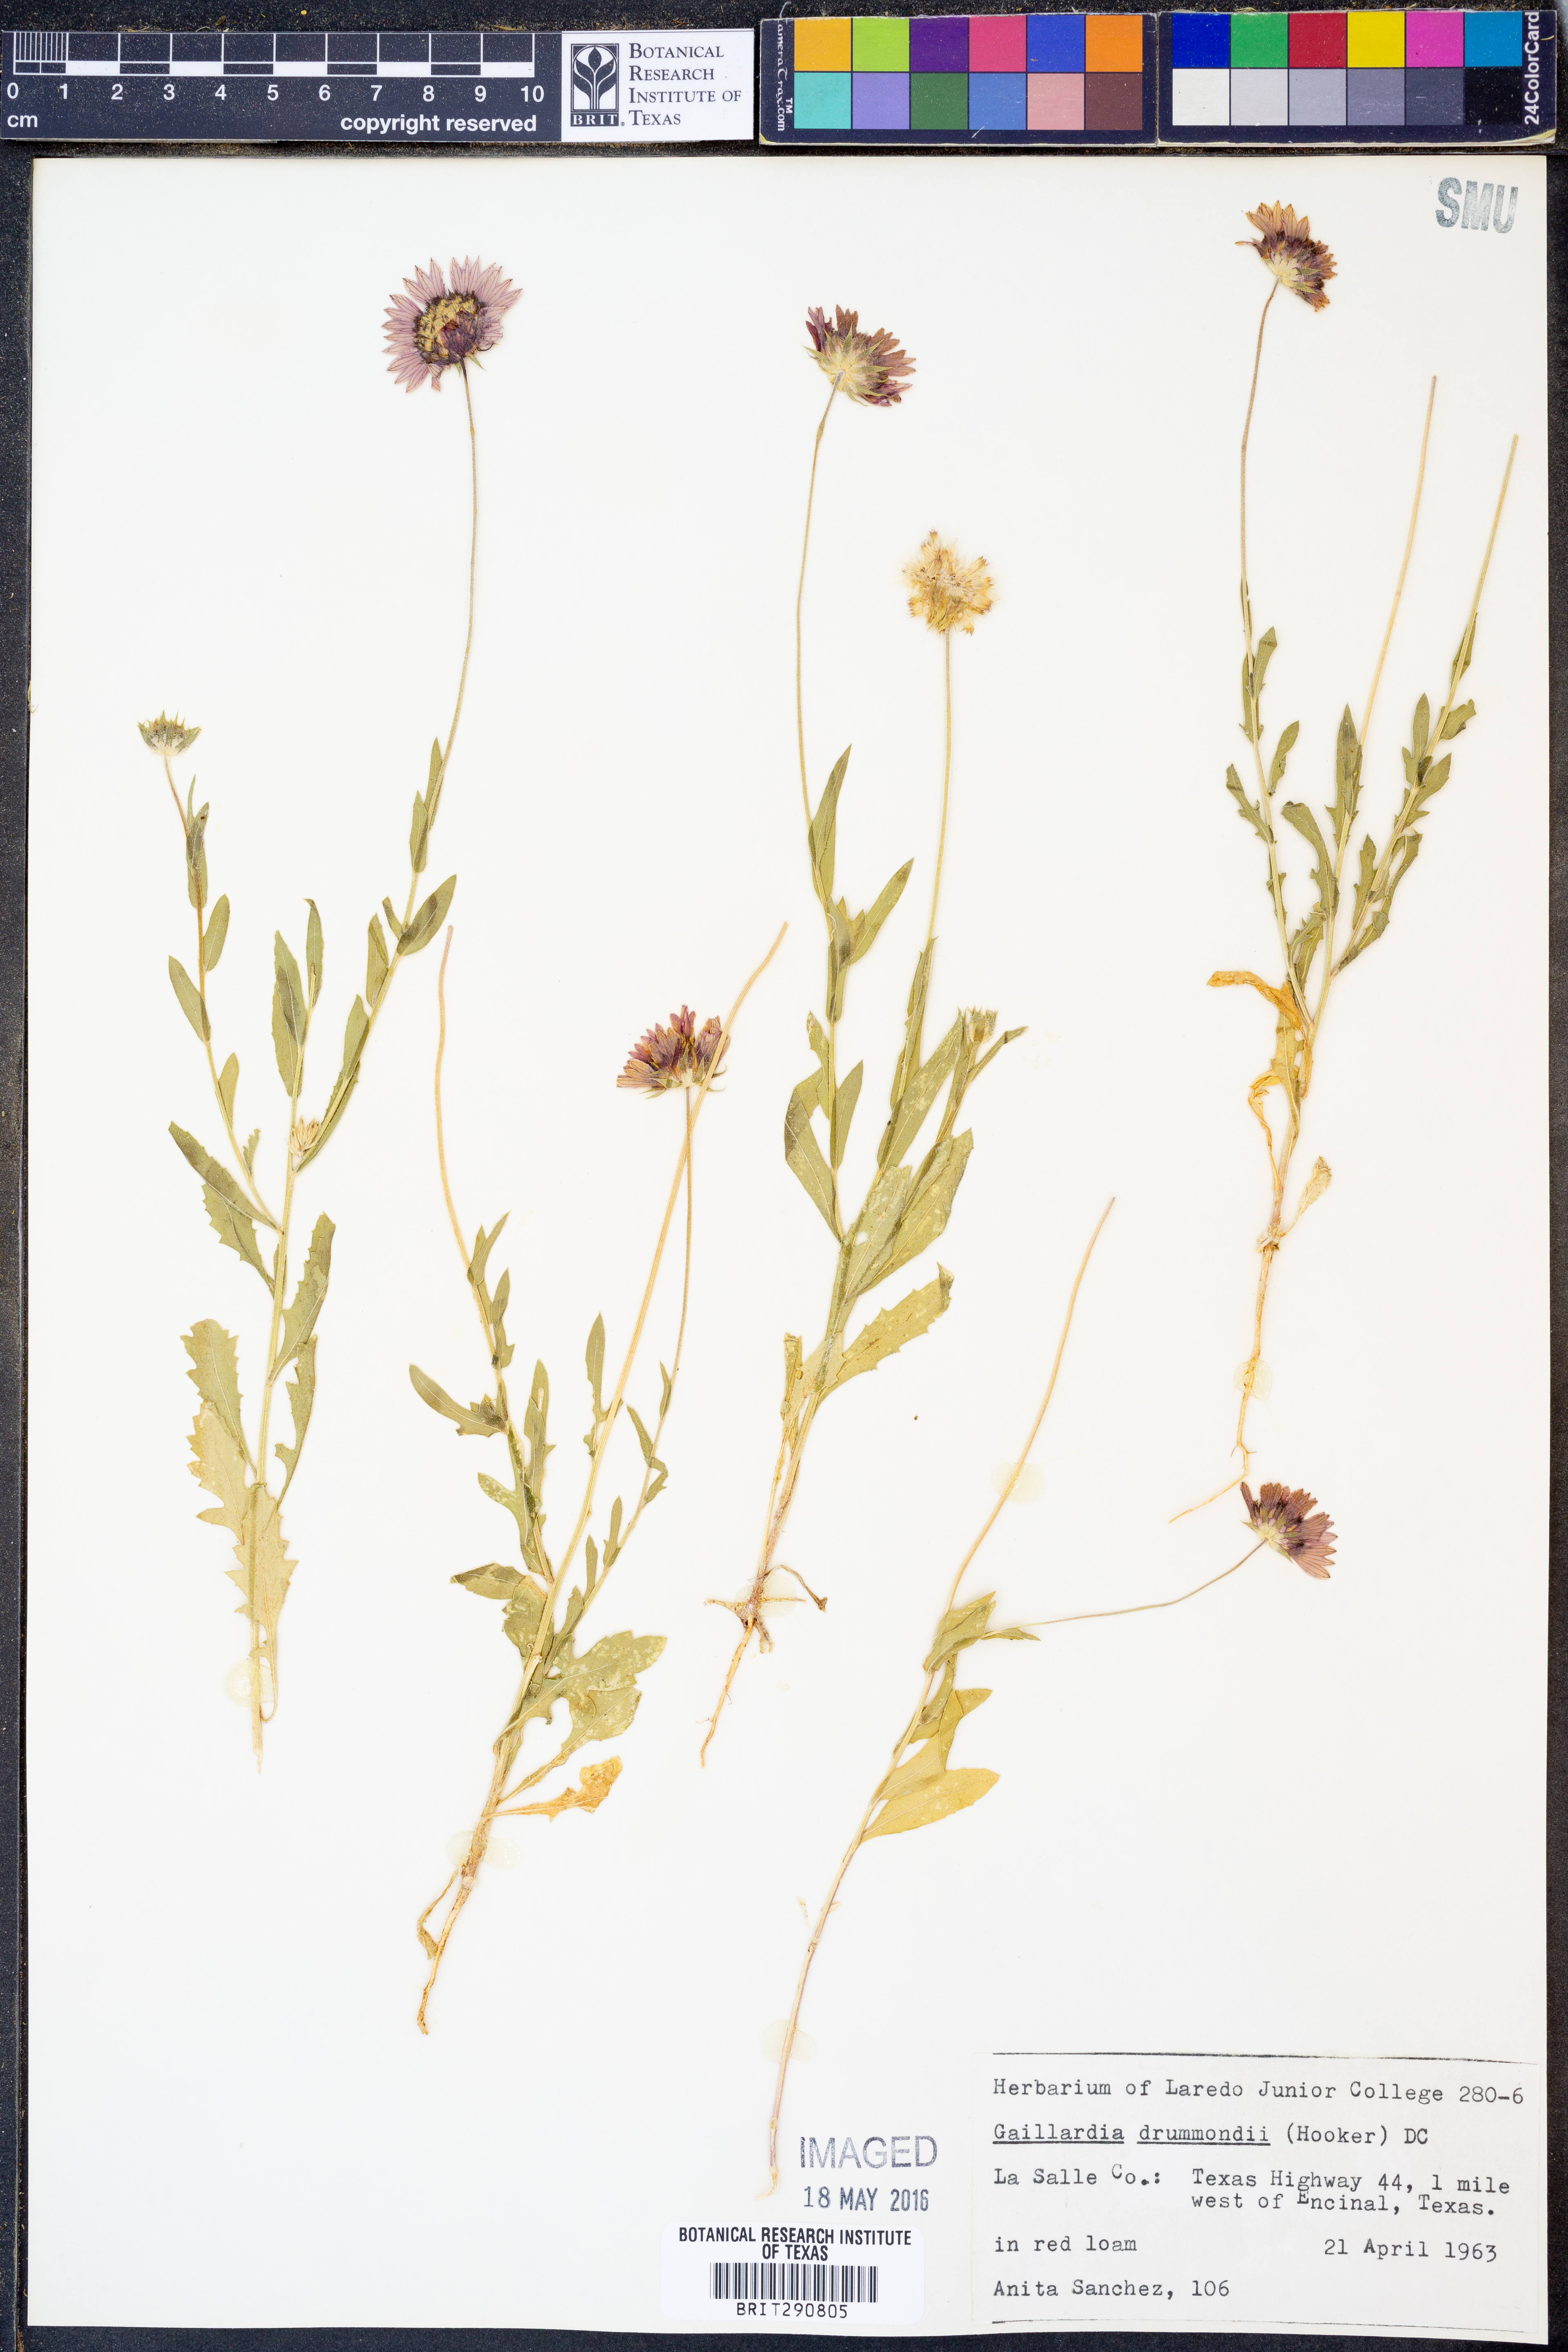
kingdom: Plantae
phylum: Tracheophyta
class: Magnoliopsida
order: Asterales
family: Asteraceae
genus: Gaillardia
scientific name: Gaillardia pulchella
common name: Firewheel
